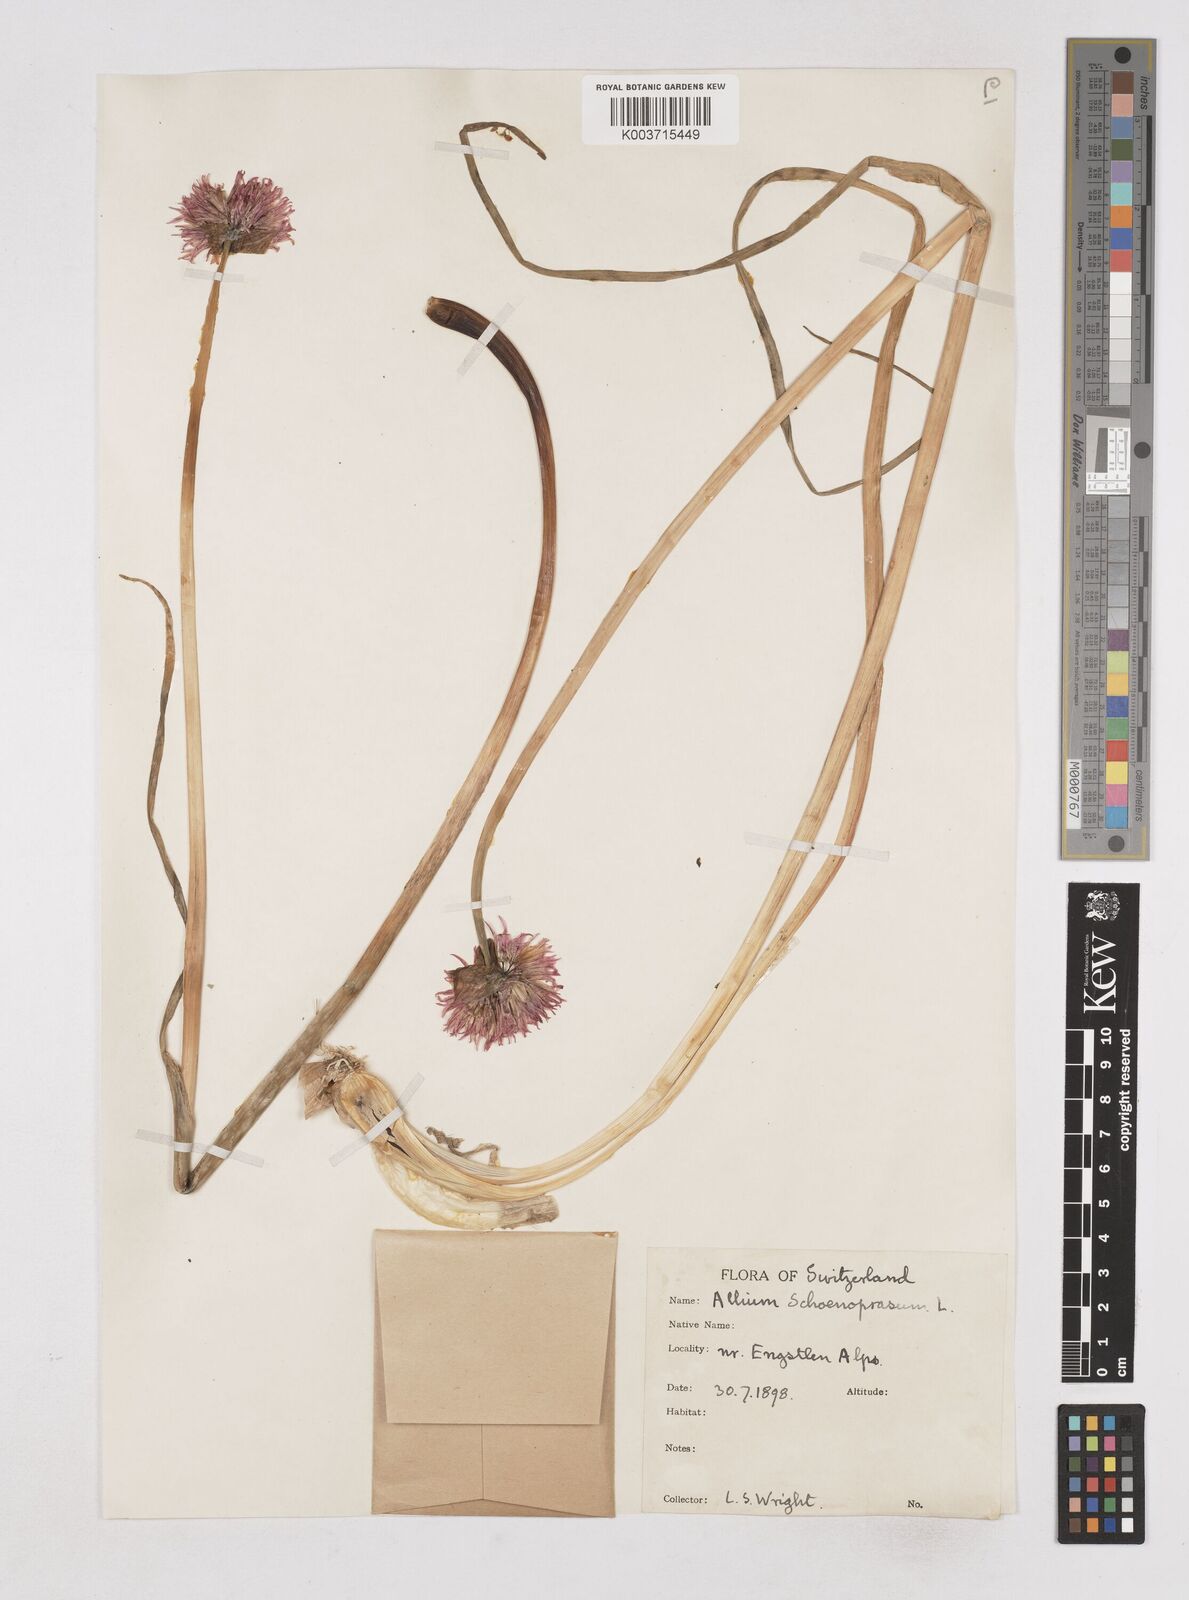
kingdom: Plantae
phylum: Tracheophyta
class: Liliopsida
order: Asparagales
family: Amaryllidaceae
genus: Allium
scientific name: Allium schoenoprasum
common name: Chives
